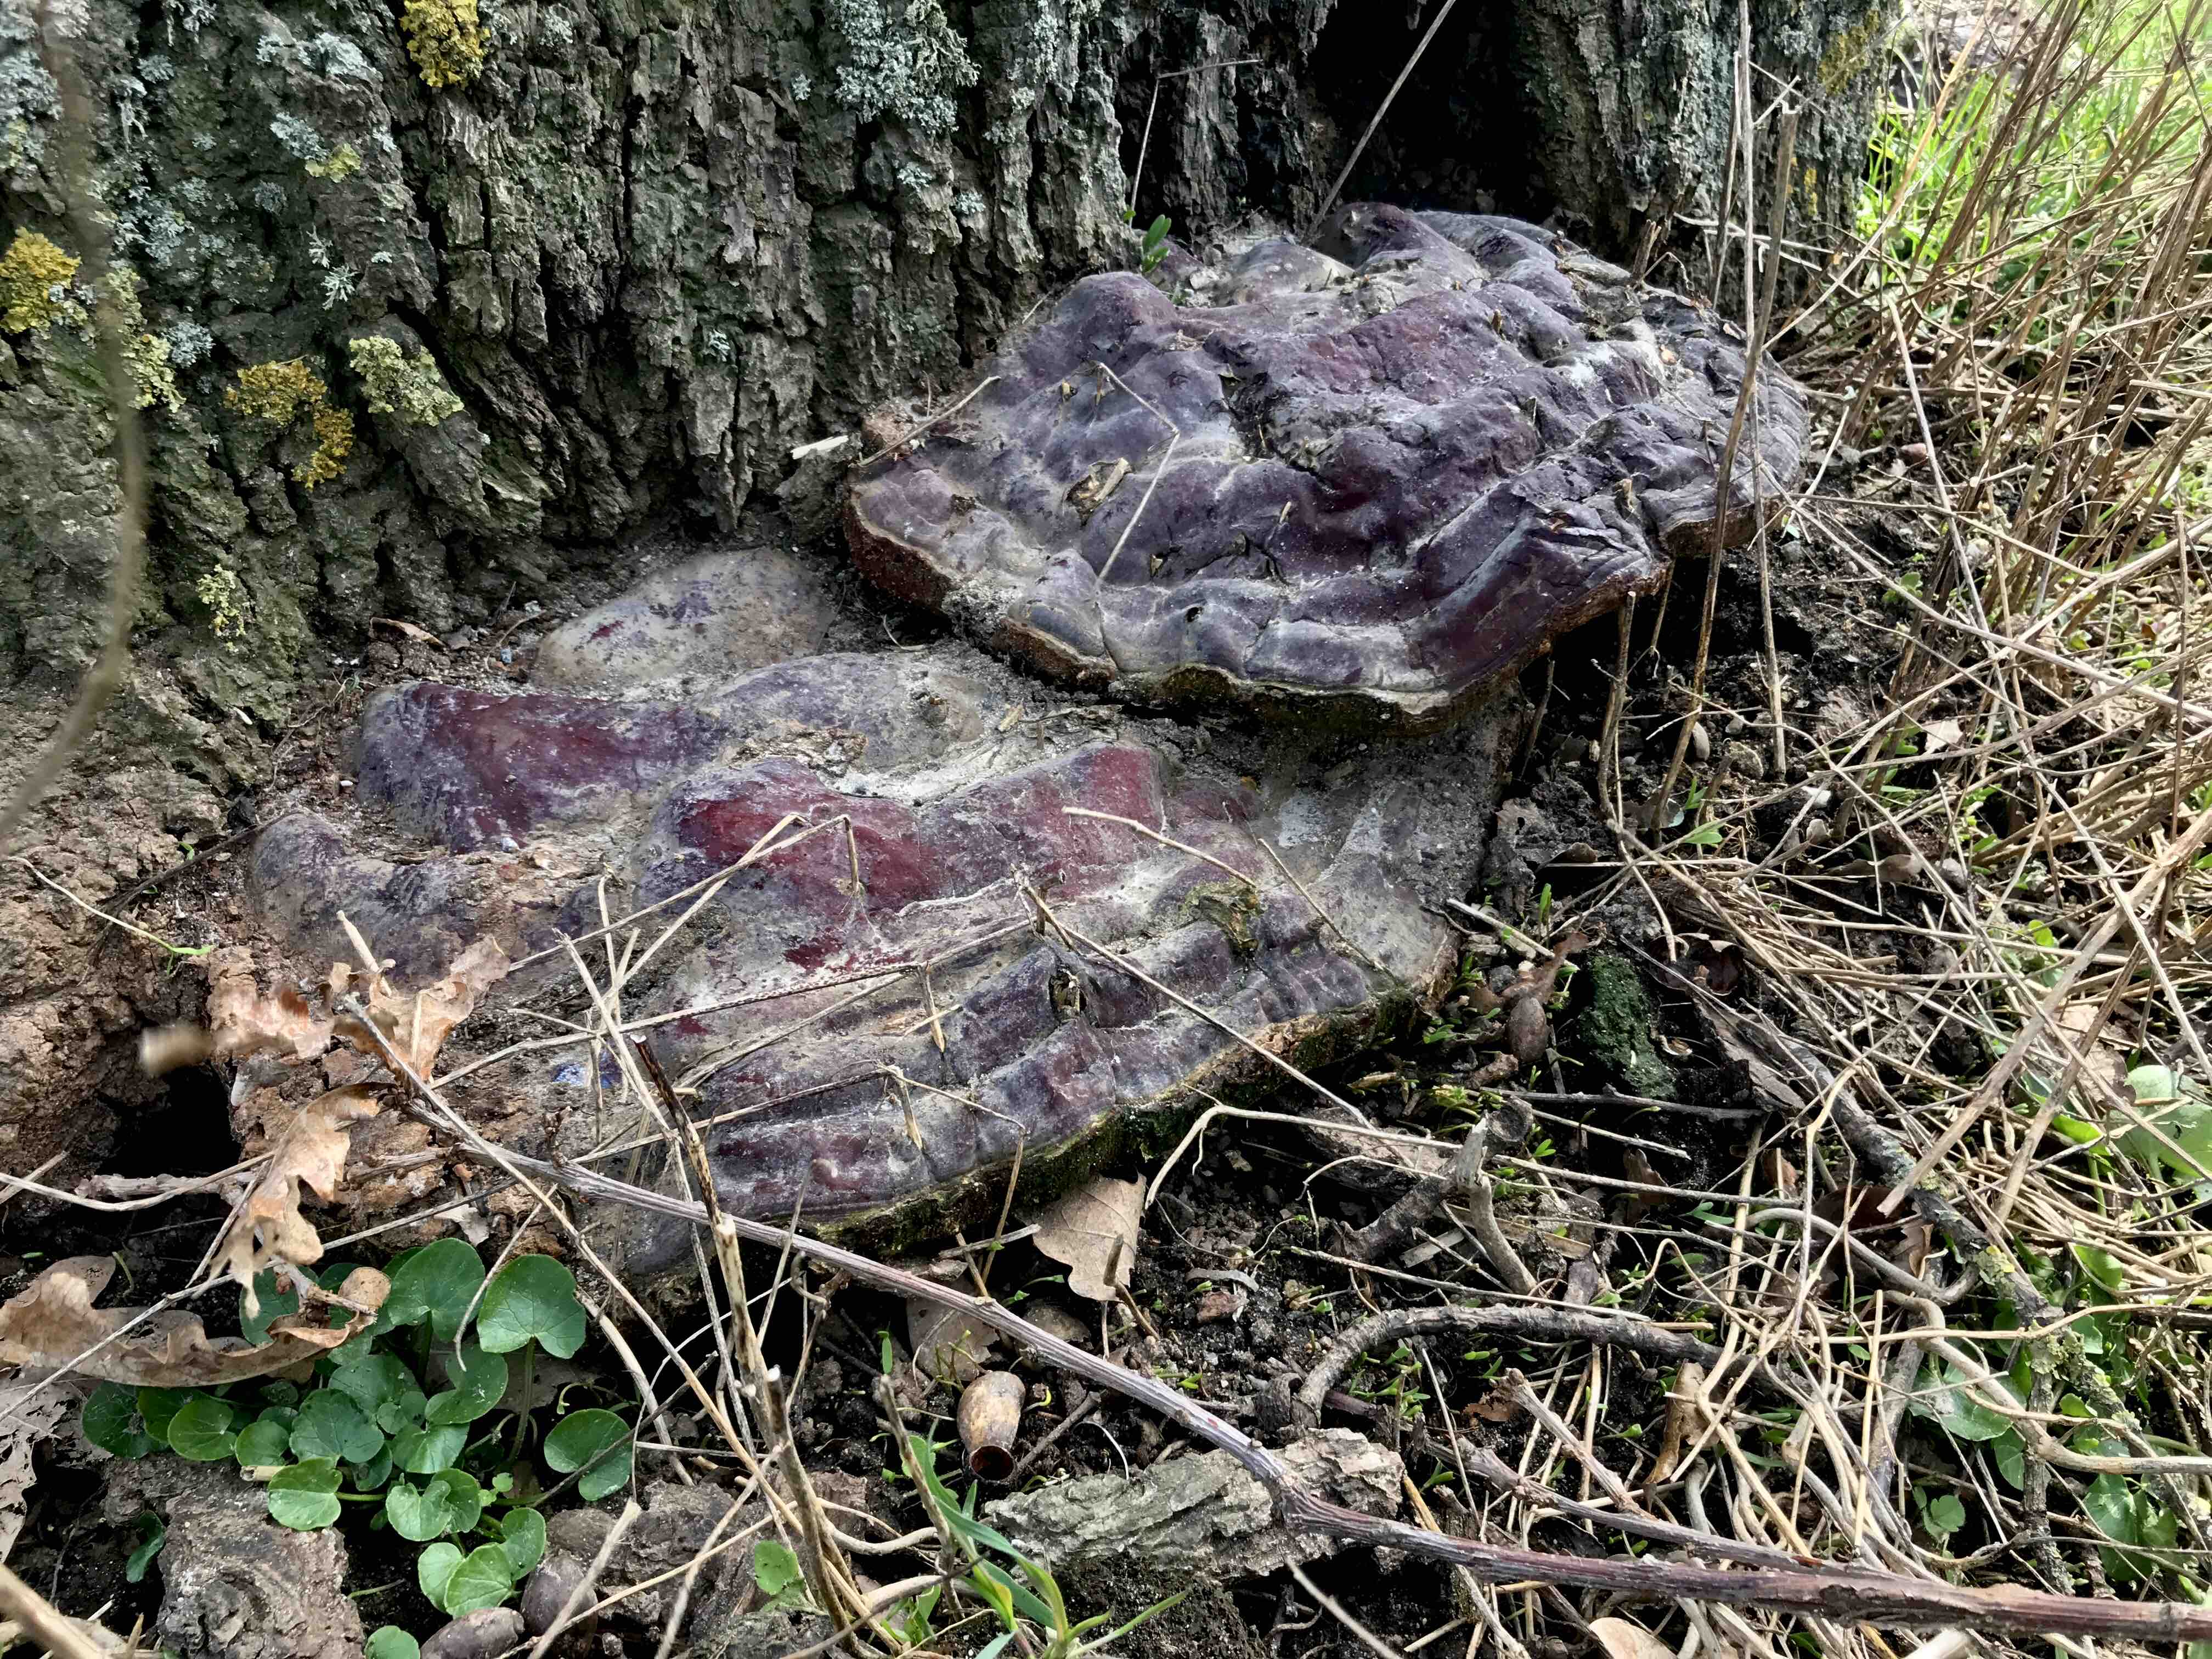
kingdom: Fungi
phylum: Basidiomycota
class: Agaricomycetes
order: Polyporales
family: Polyporaceae
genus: Ganoderma
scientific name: Ganoderma resinaceum
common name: gyldenbrun lakporesvamp
